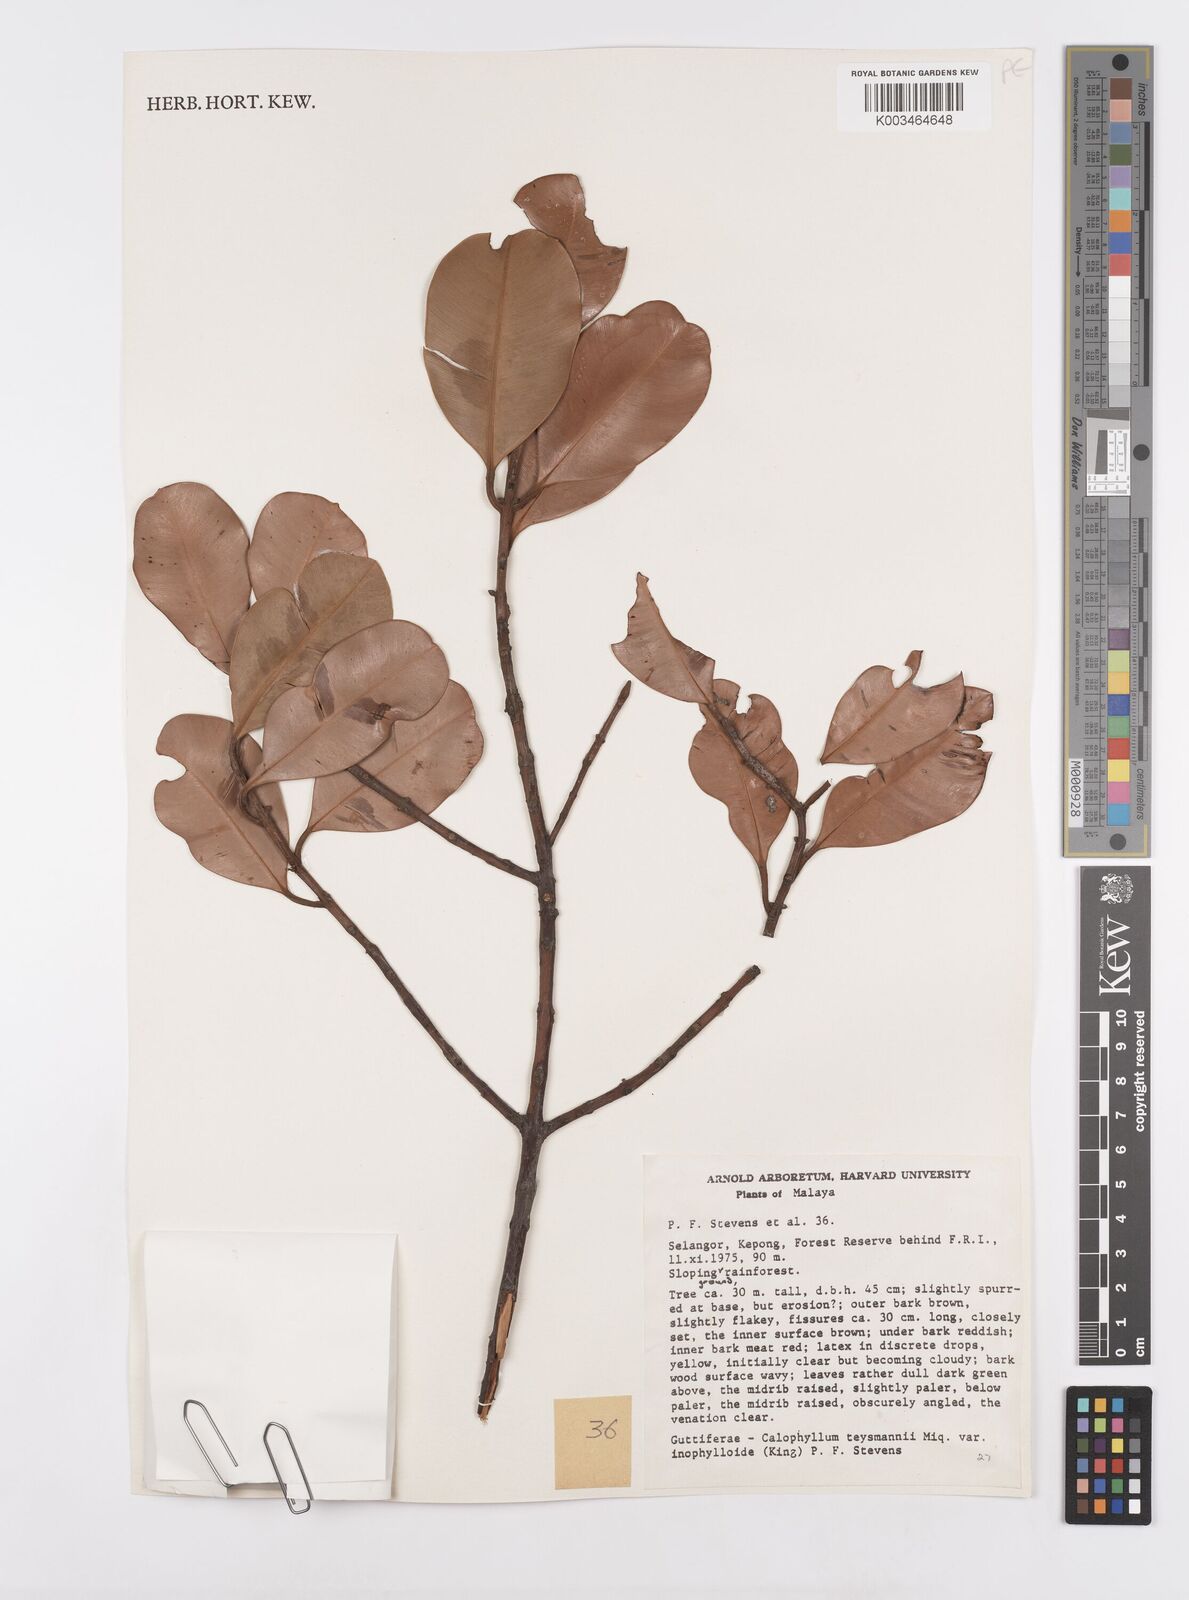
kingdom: Plantae
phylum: Tracheophyta
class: Magnoliopsida
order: Malpighiales
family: Calophyllaceae
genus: Calophyllum
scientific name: Calophyllum teysmannii
